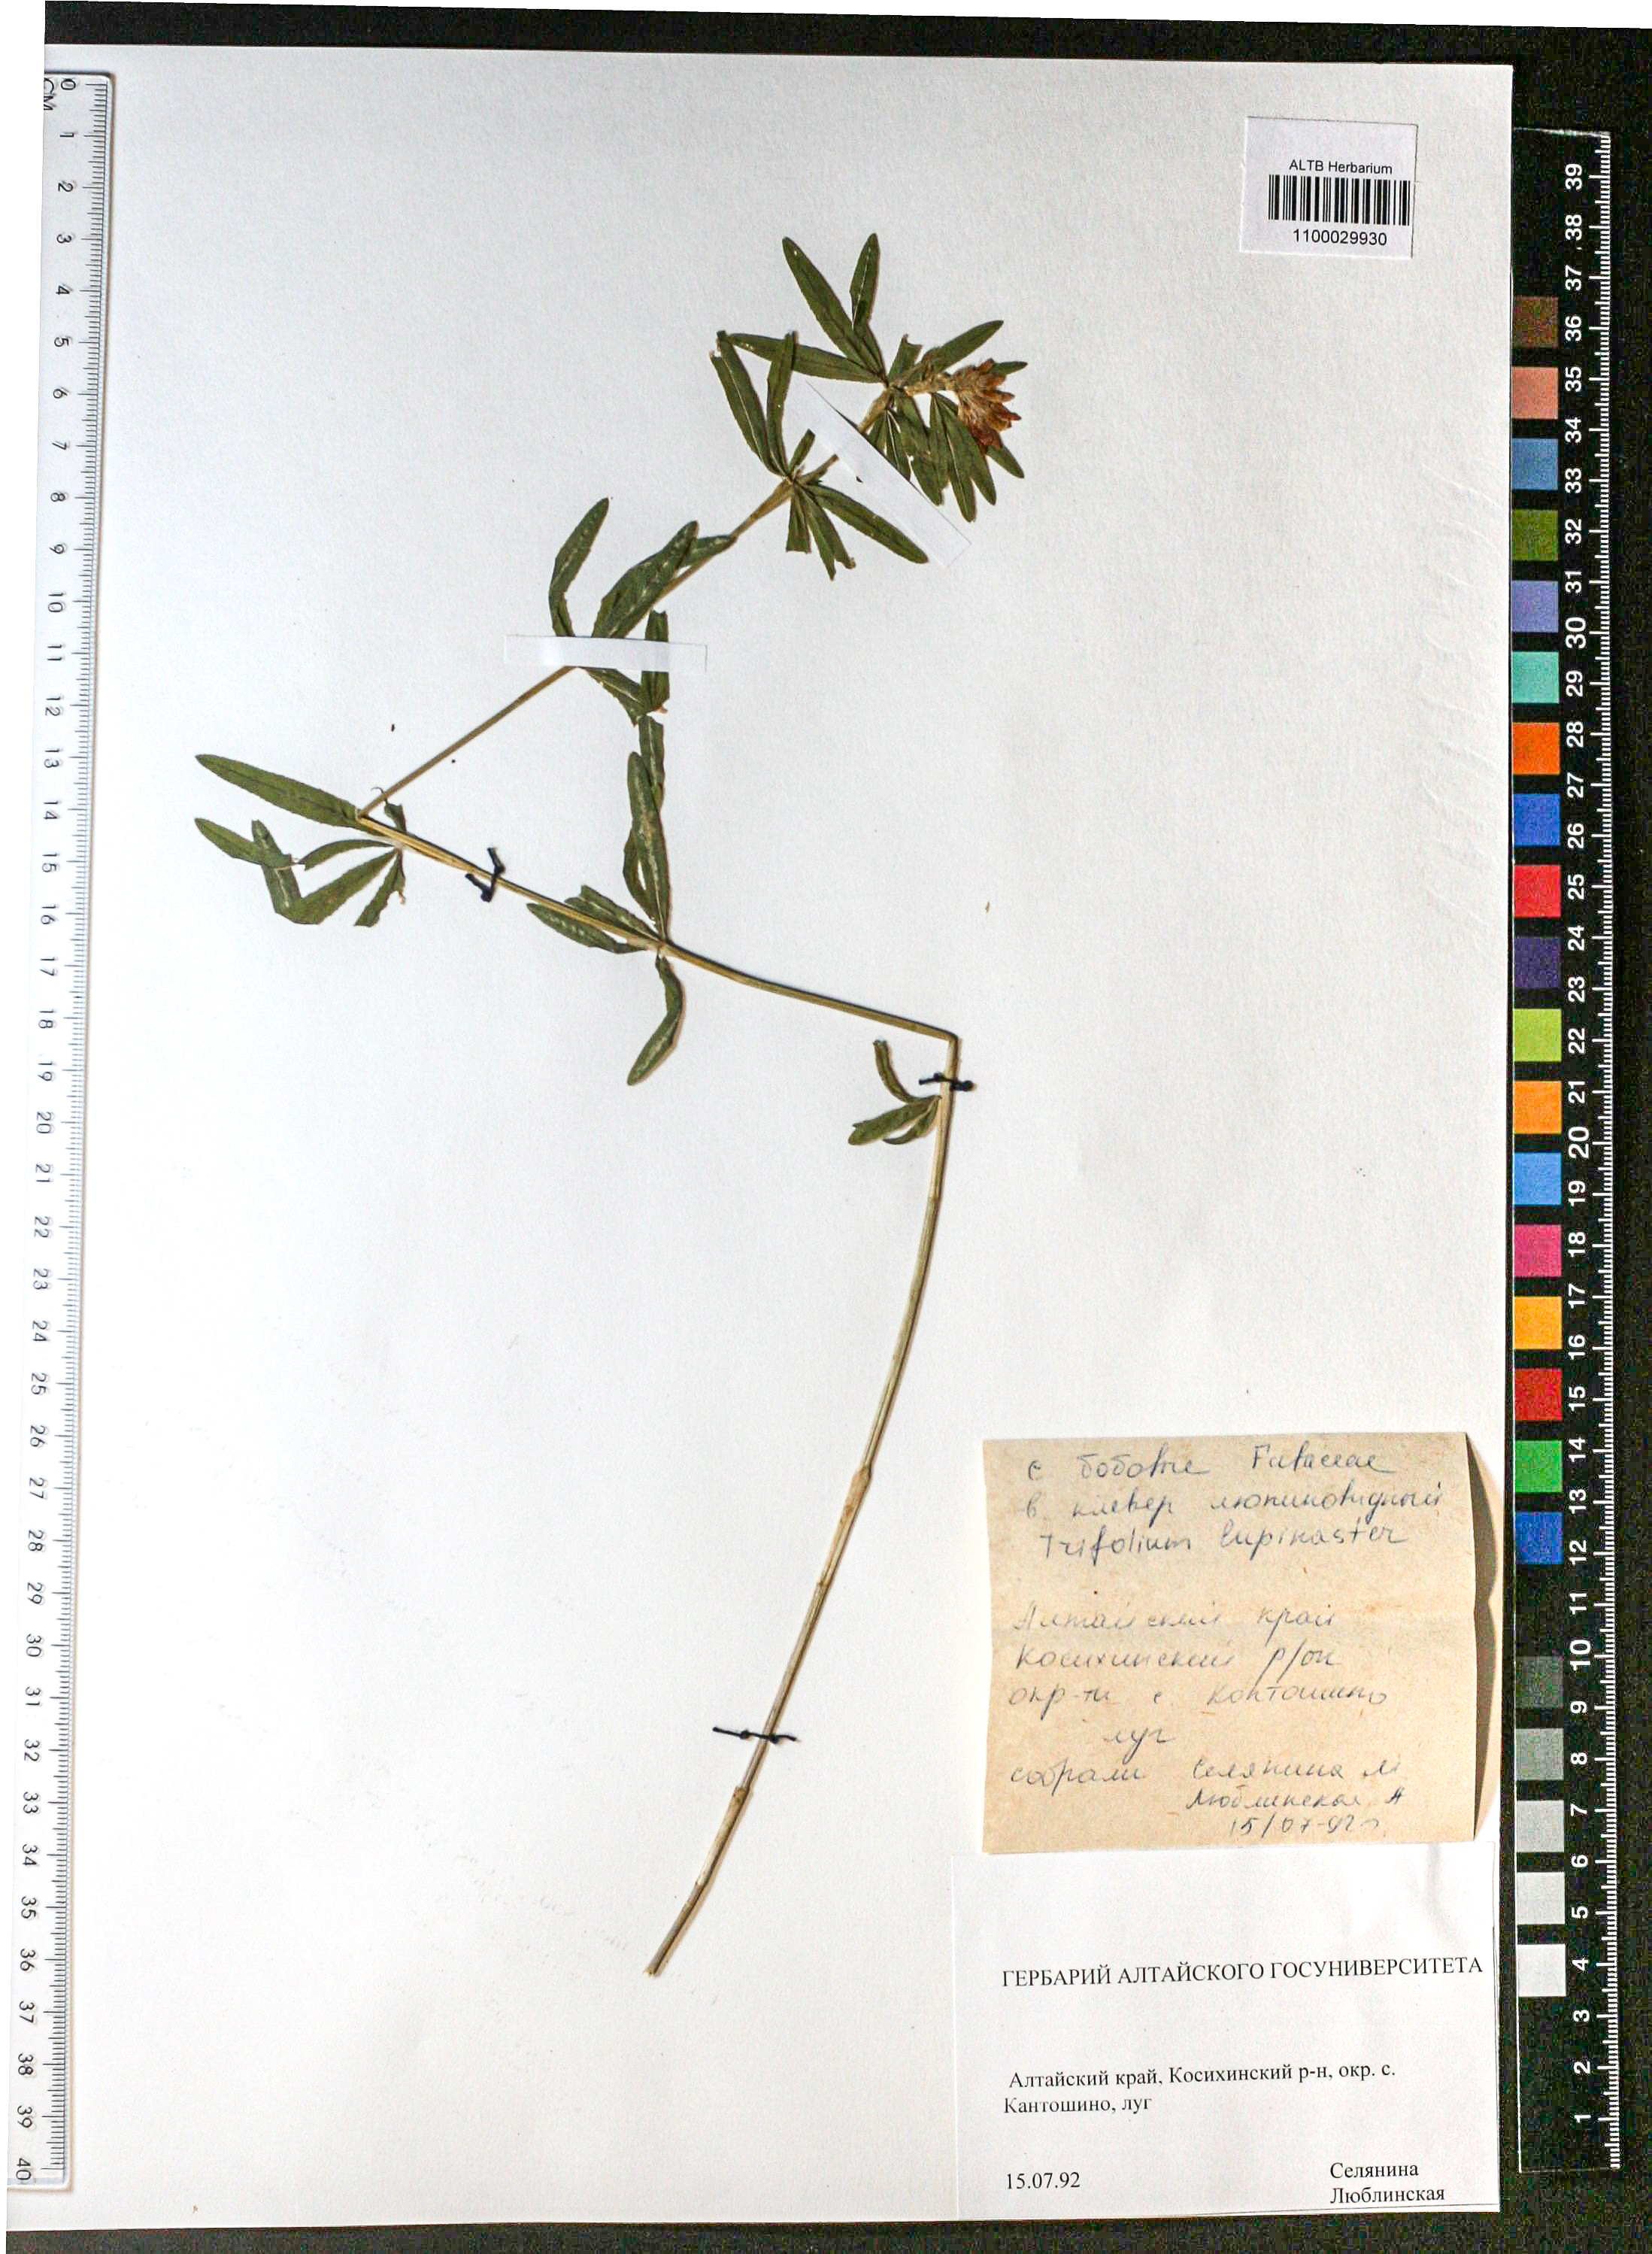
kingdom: Plantae
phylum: Tracheophyta
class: Magnoliopsida
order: Fabales
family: Fabaceae
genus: Trifolium
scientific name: Trifolium lupinaster
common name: Lupine clover
